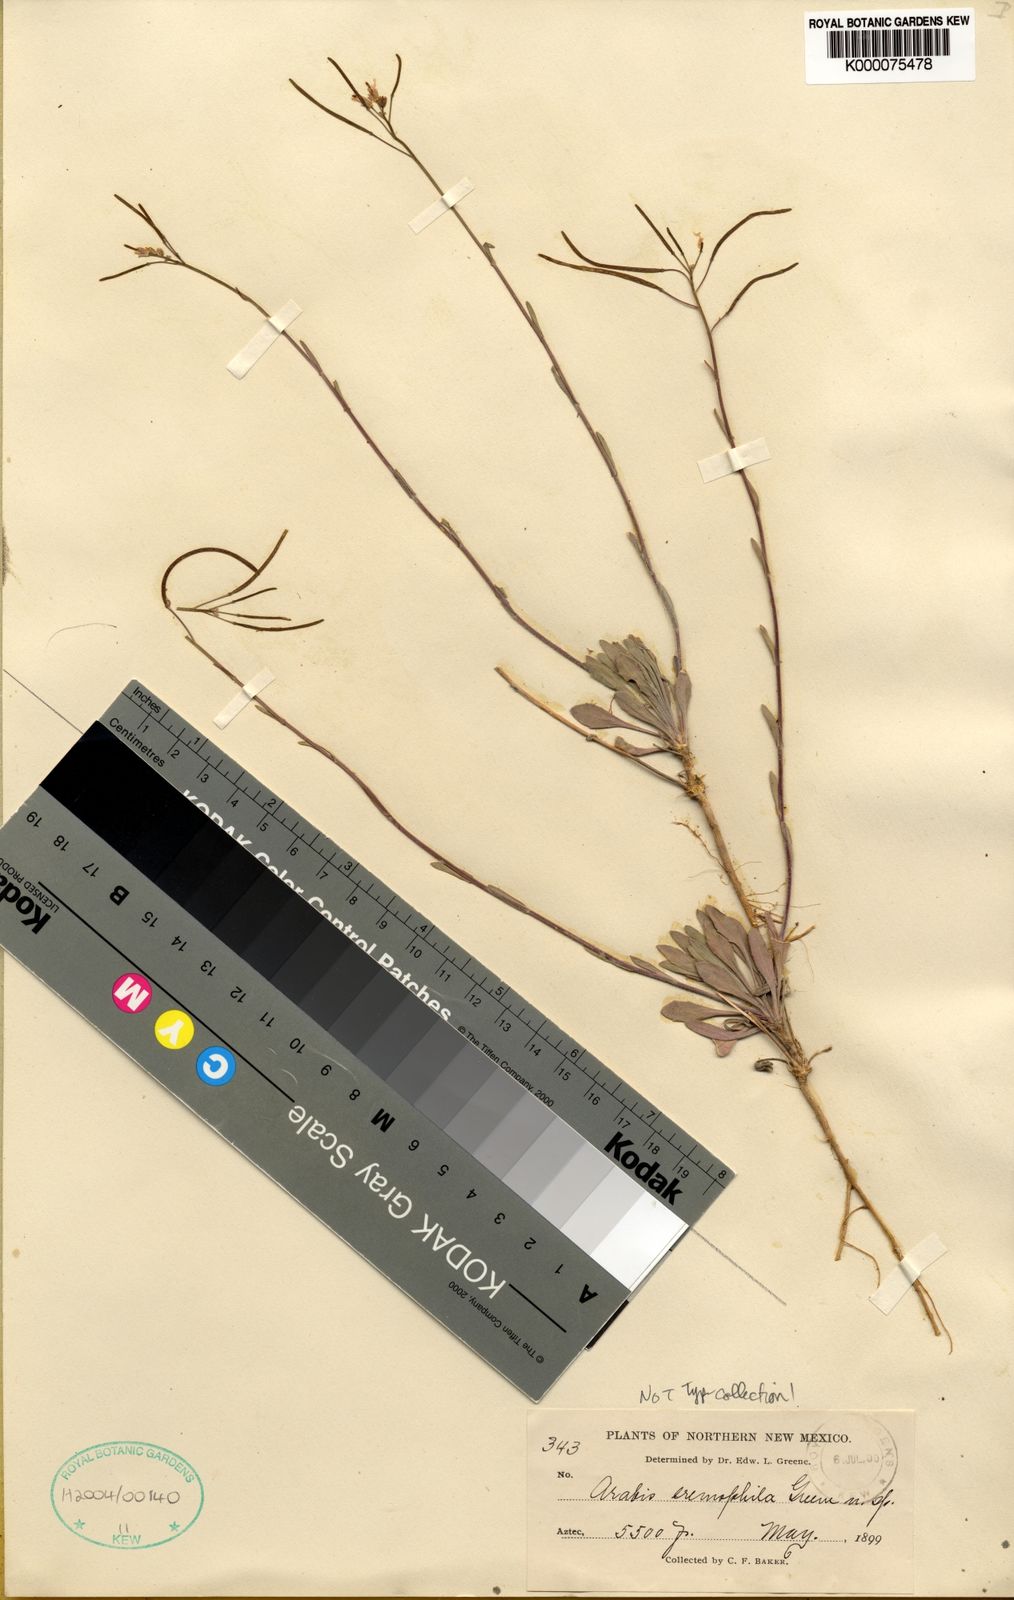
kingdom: Plantae
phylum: Tracheophyta
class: Magnoliopsida
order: Brassicales
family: Brassicaceae
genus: Boechera
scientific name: Boechera perennans
